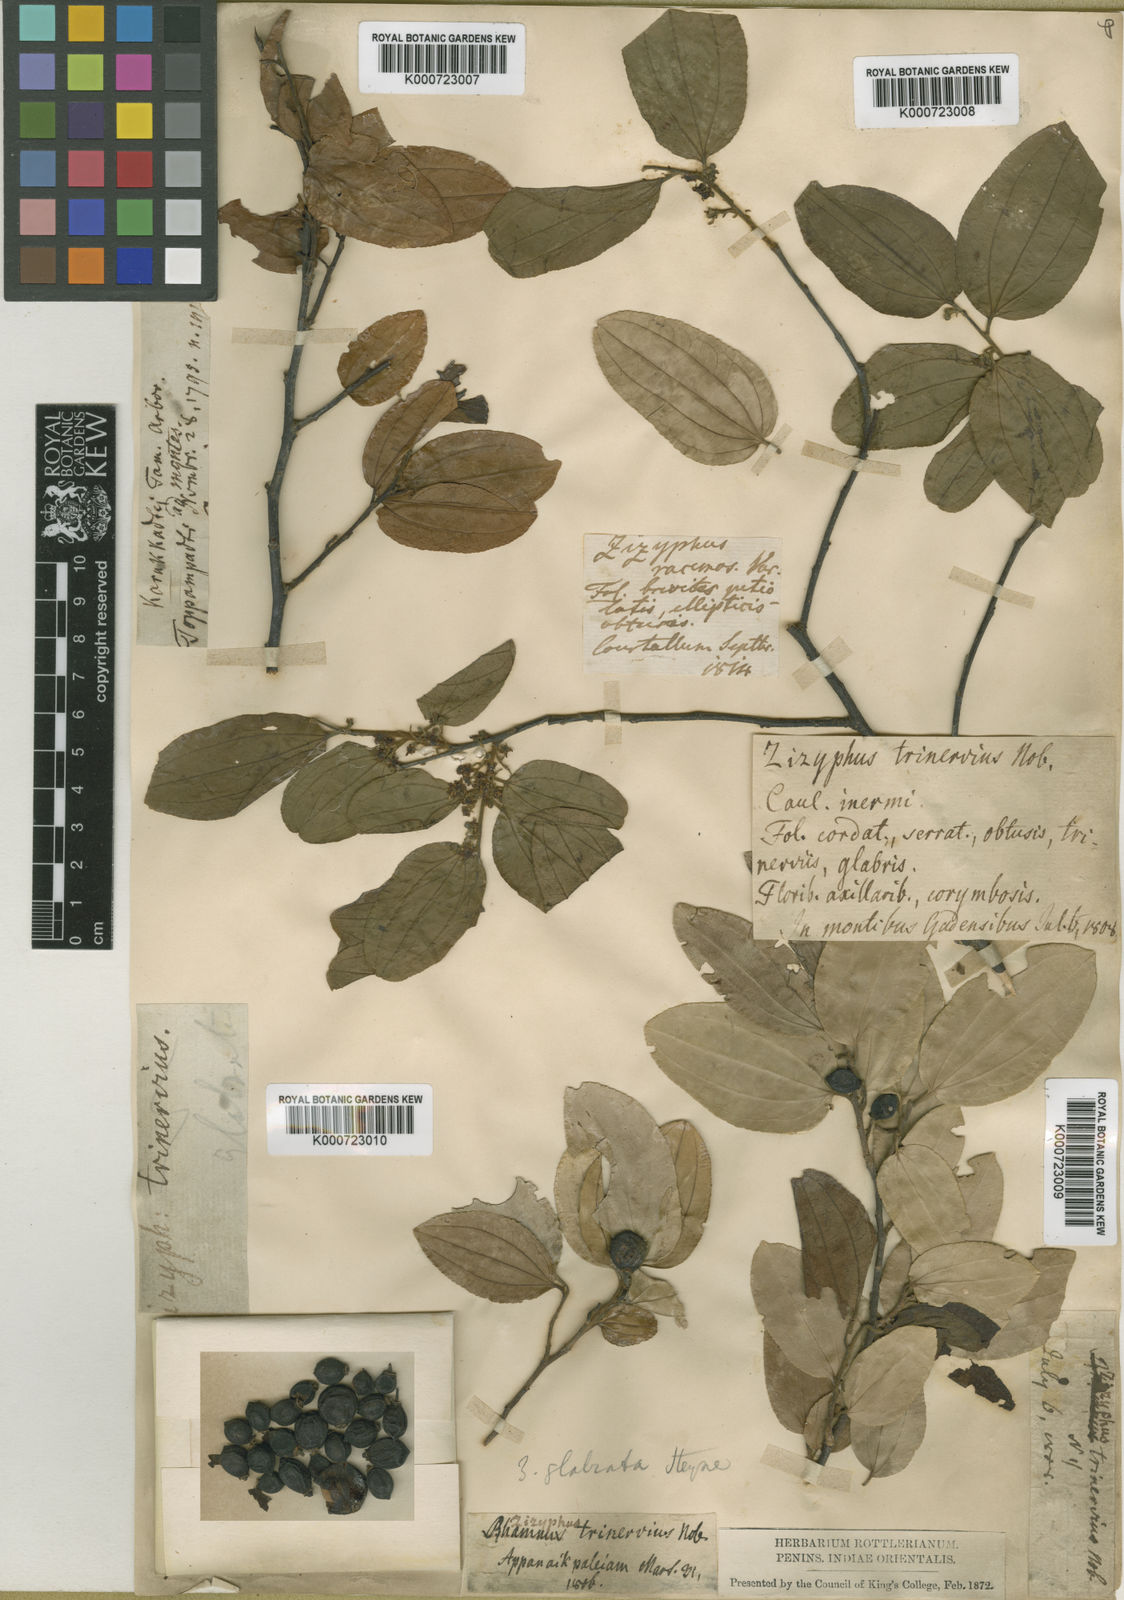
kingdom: Plantae
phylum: Tracheophyta
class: Magnoliopsida
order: Rosales
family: Rhamnaceae
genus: Ziziphus
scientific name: Ziziphus glabrata
